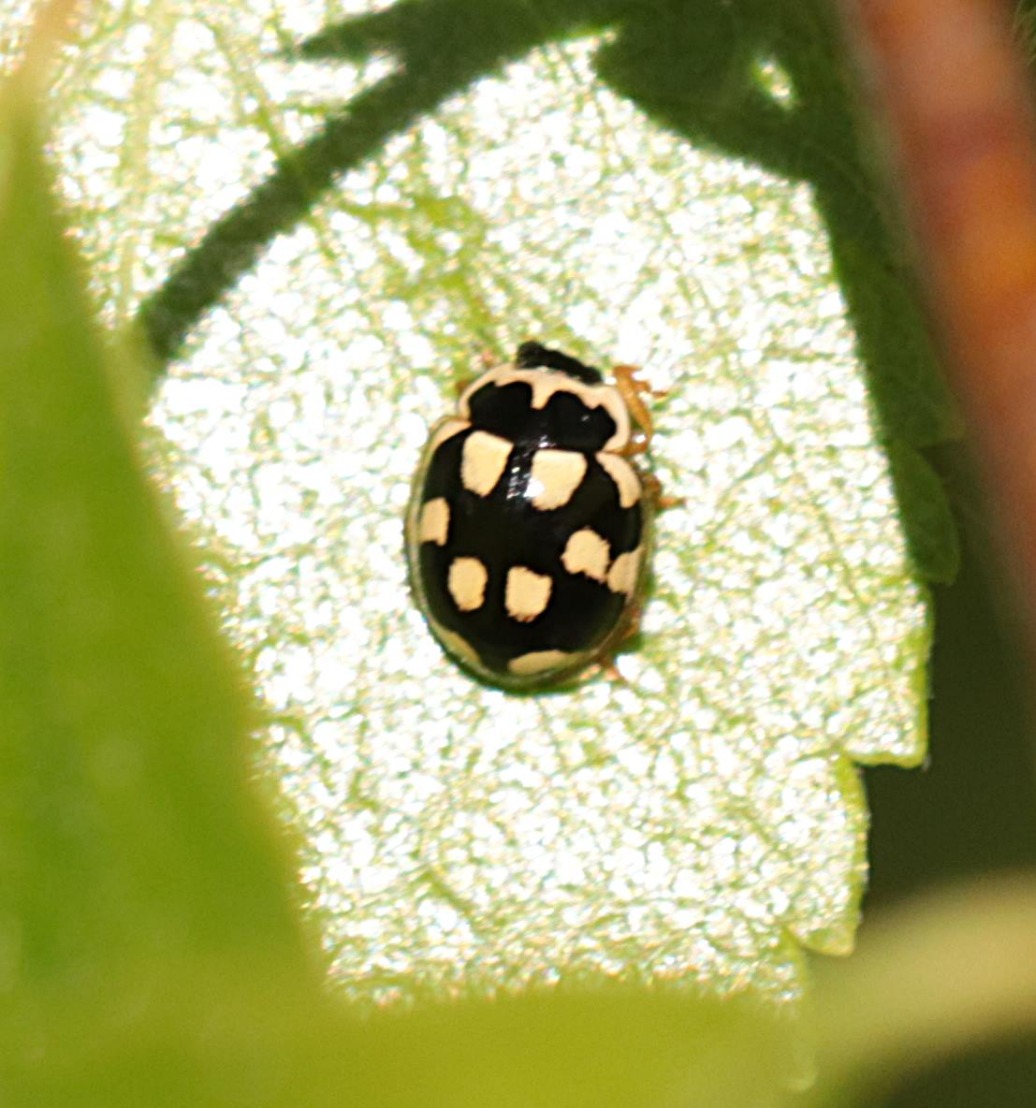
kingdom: Animalia
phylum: Arthropoda
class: Insecta
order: Coleoptera
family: Coccinellidae
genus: Propylaea
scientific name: Propylaea quatuordecimpunctata
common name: Skakbræt
